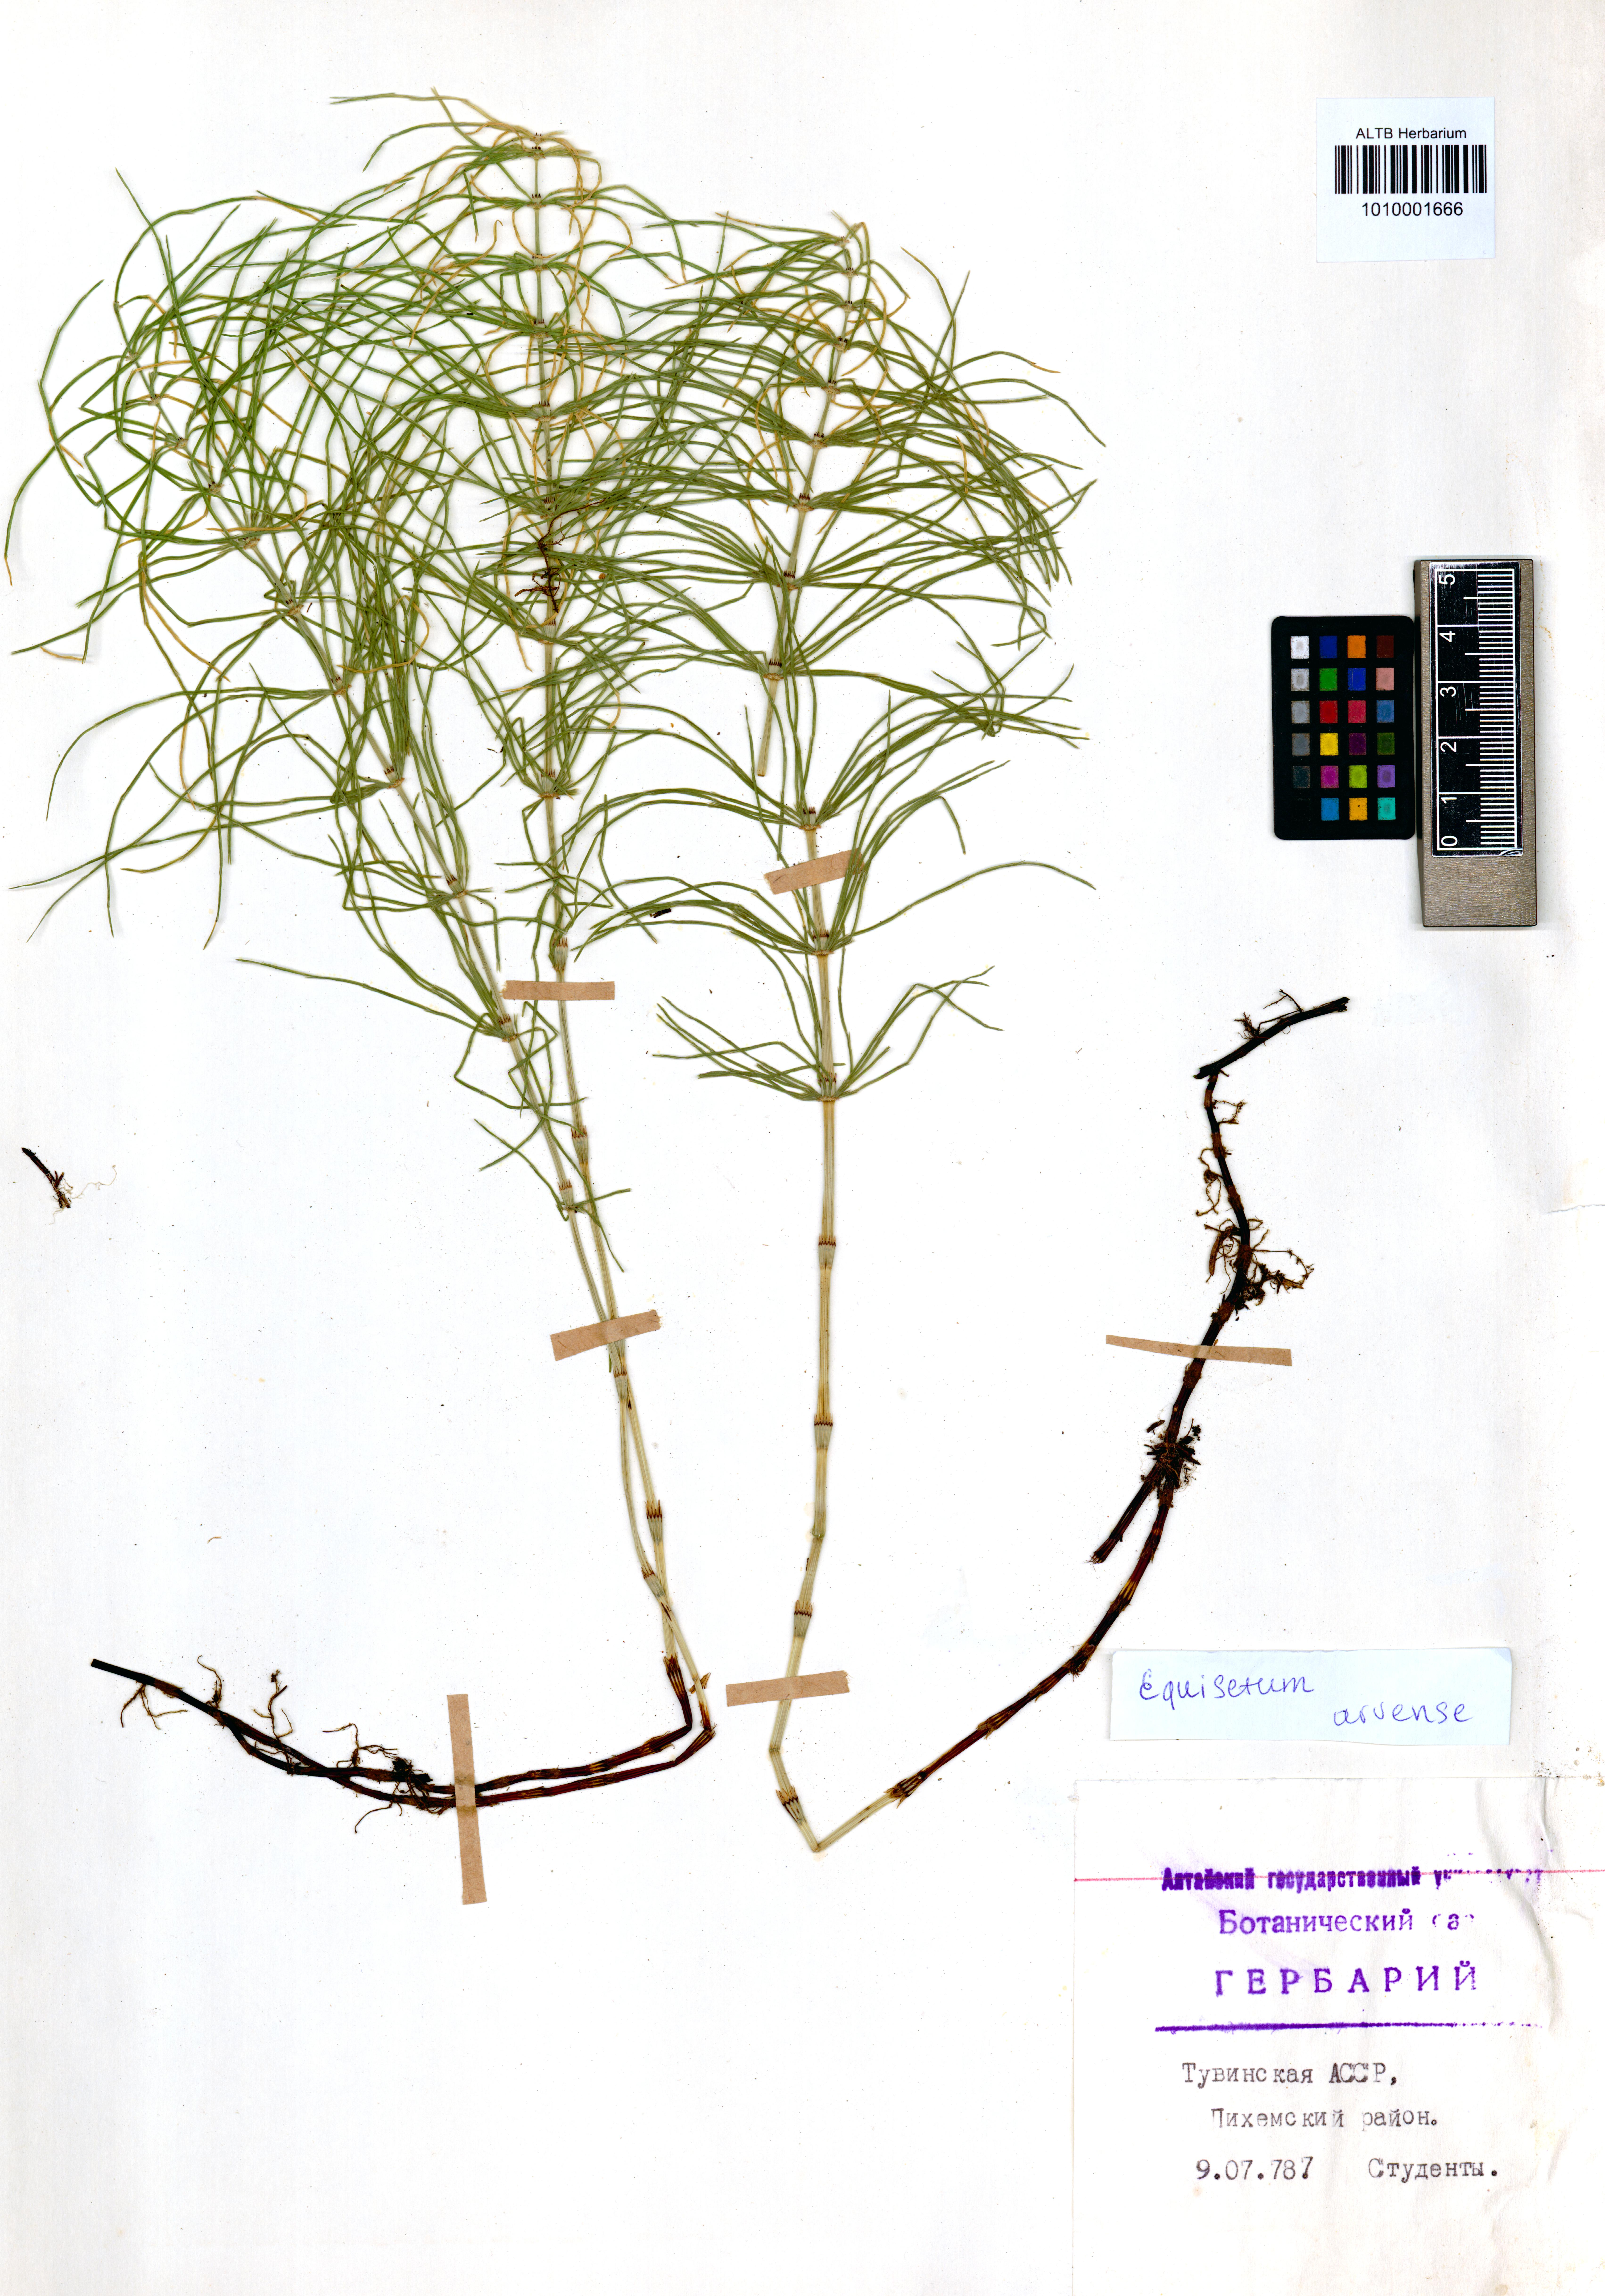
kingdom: Plantae
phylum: Tracheophyta
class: Polypodiopsida
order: Equisetales
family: Equisetaceae
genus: Equisetum
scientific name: Equisetum arvense
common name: Field horsetail
